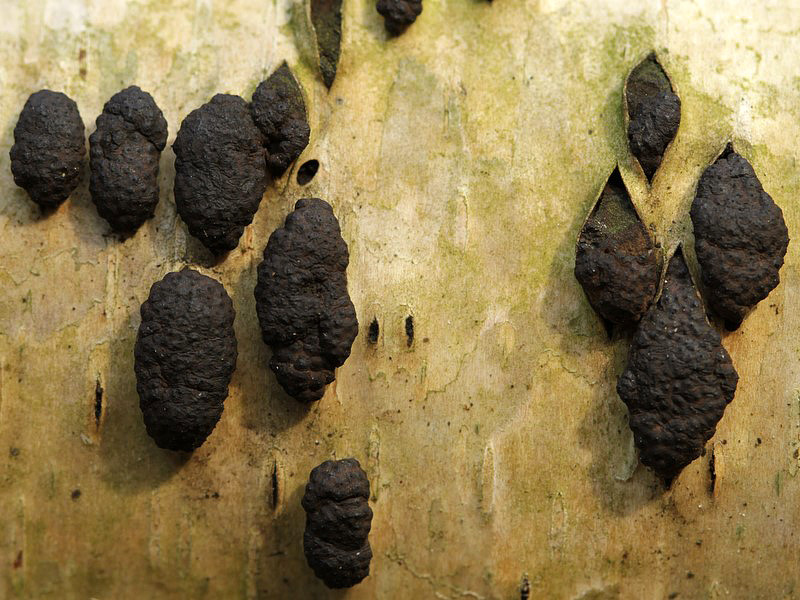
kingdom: Fungi
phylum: Ascomycota
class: Sordariomycetes
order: Xylariales
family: Hypoxylaceae
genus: Jackrogersella
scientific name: Jackrogersella multiformis
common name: foranderlig kulbær
